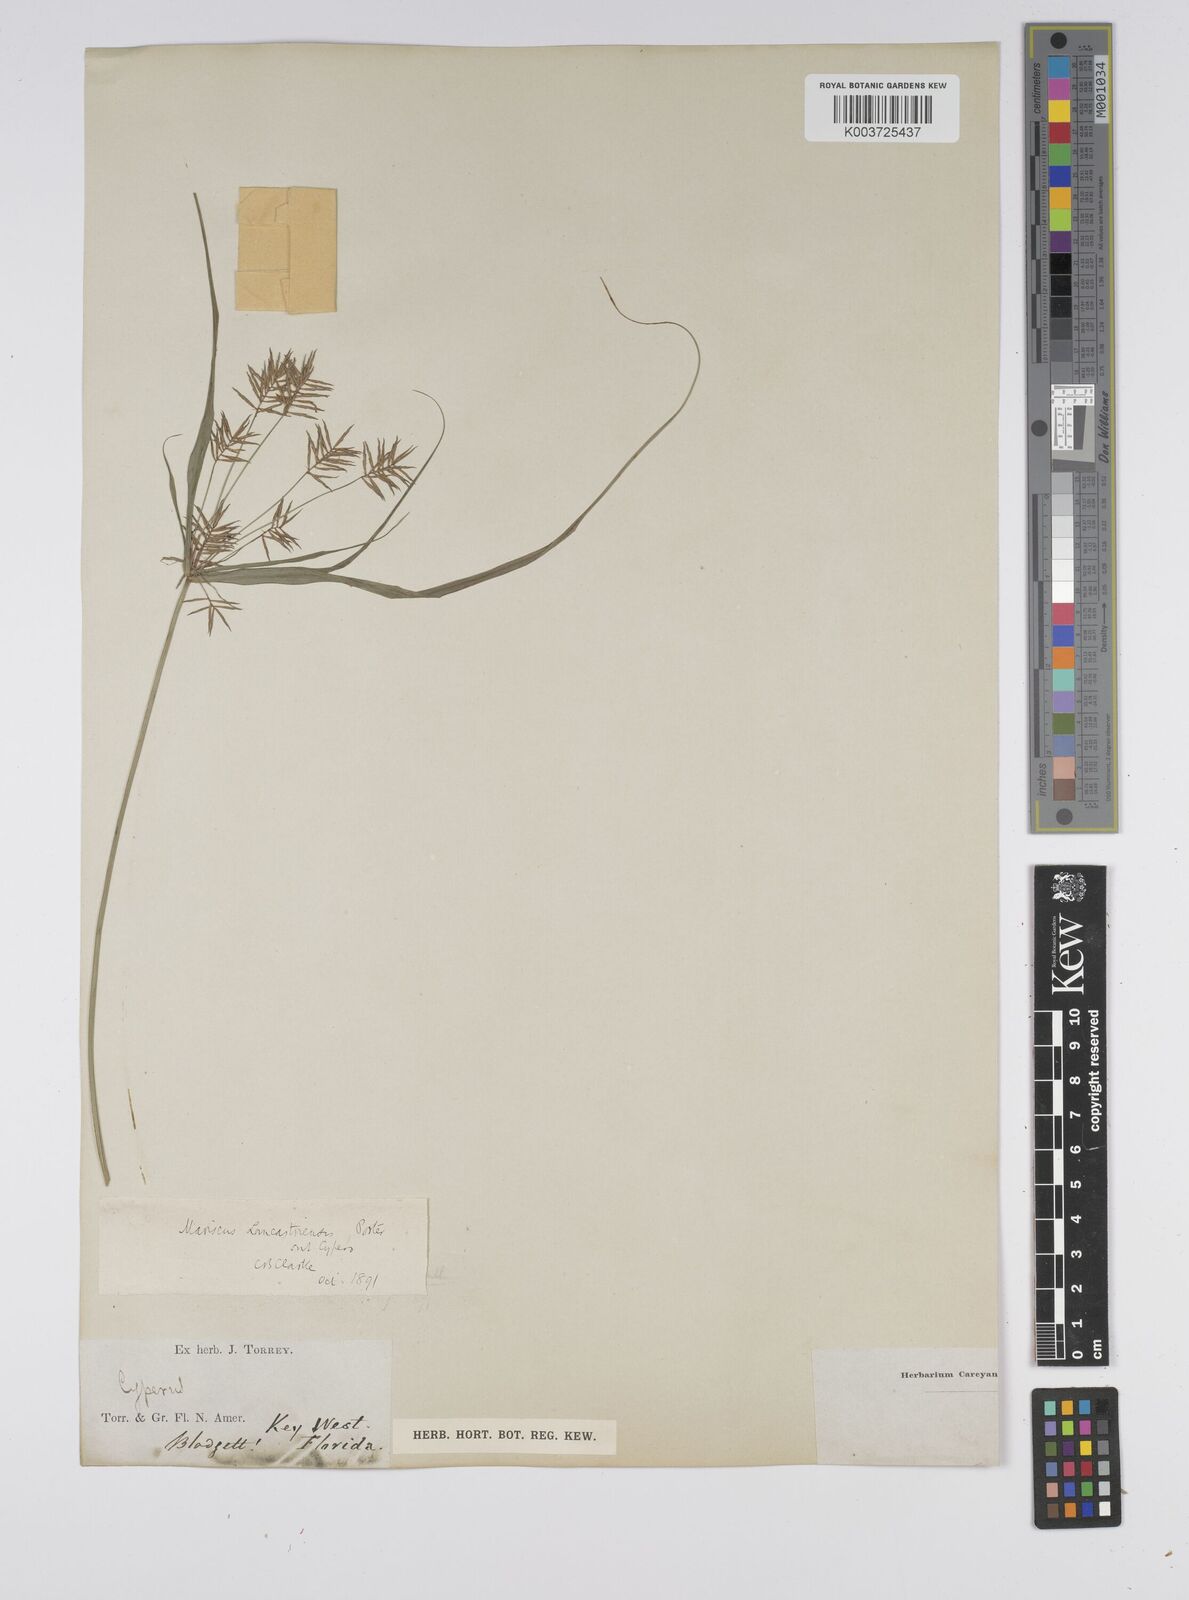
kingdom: Plantae
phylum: Tracheophyta
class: Liliopsida
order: Poales
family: Cyperaceae
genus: Cyperus
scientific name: Cyperus lancastriensis
